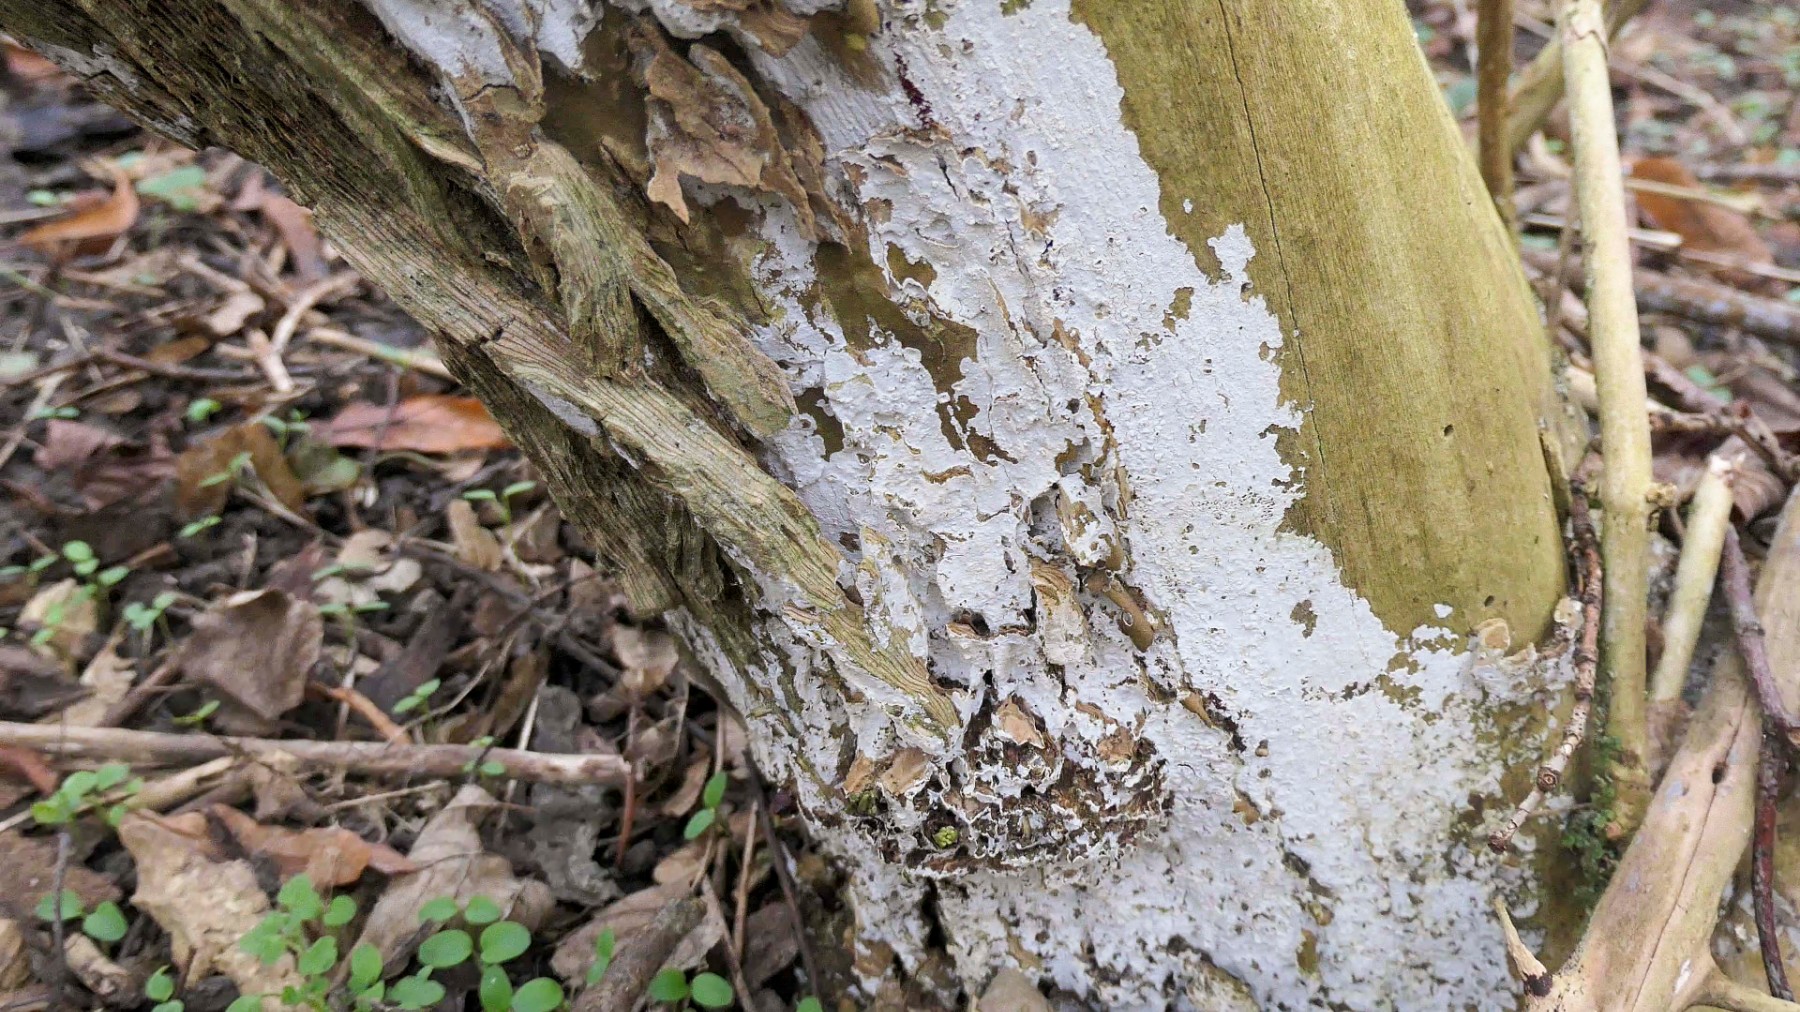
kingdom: Fungi
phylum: Basidiomycota
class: Agaricomycetes
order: Corticiales
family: Corticiaceae
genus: Lyomyces
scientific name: Lyomyces sambuci
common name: almindelig hyldehinde
